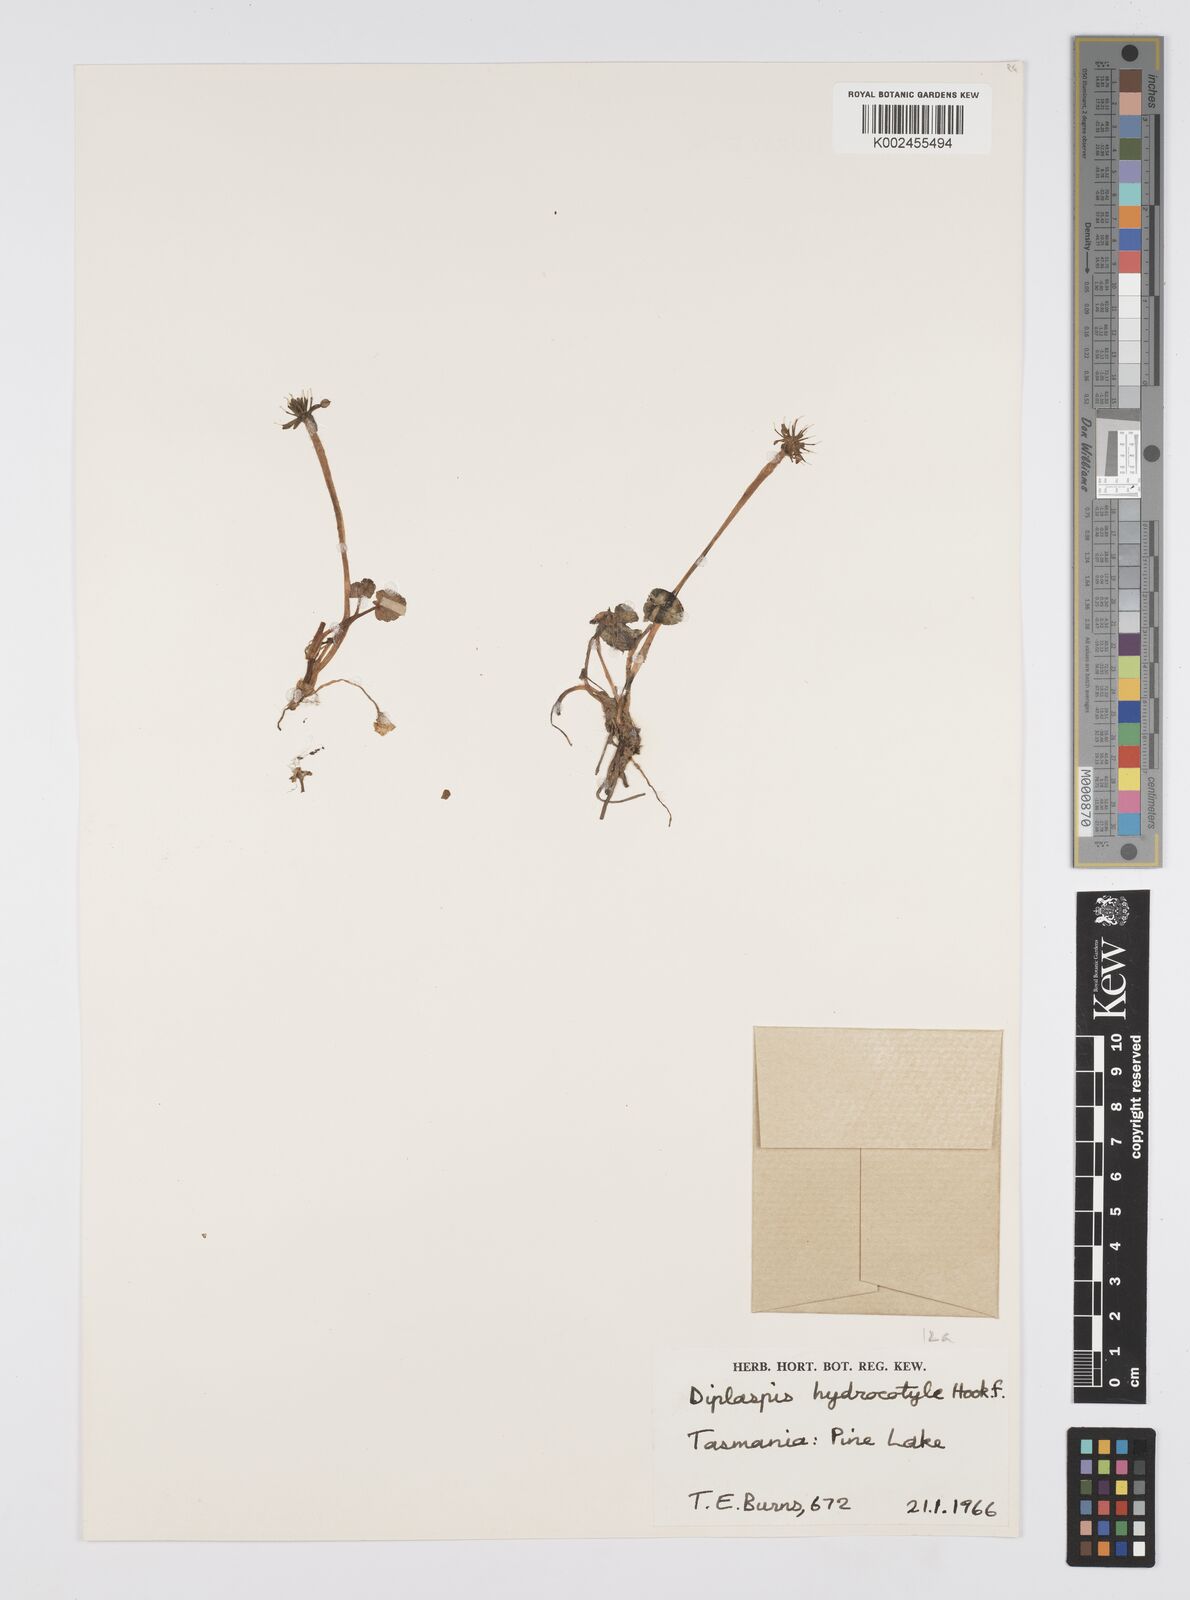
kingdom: Plantae
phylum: Tracheophyta
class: Magnoliopsida
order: Apiales
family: Apiaceae
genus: Diplaspis
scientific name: Diplaspis hydrocotylea
